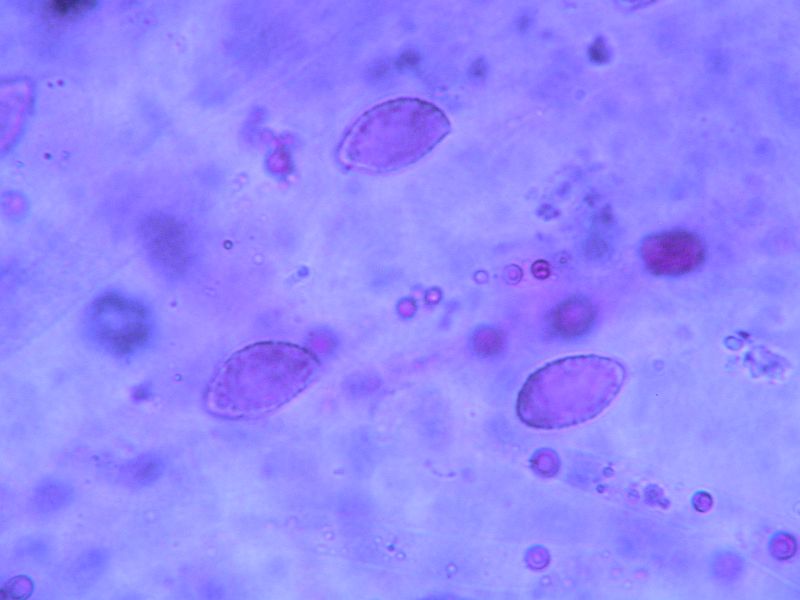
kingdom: Fungi
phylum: Basidiomycota
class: Agaricomycetes
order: Agaricales
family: Cortinariaceae
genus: Cortinarius
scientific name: Cortinarius caesiostramineus
